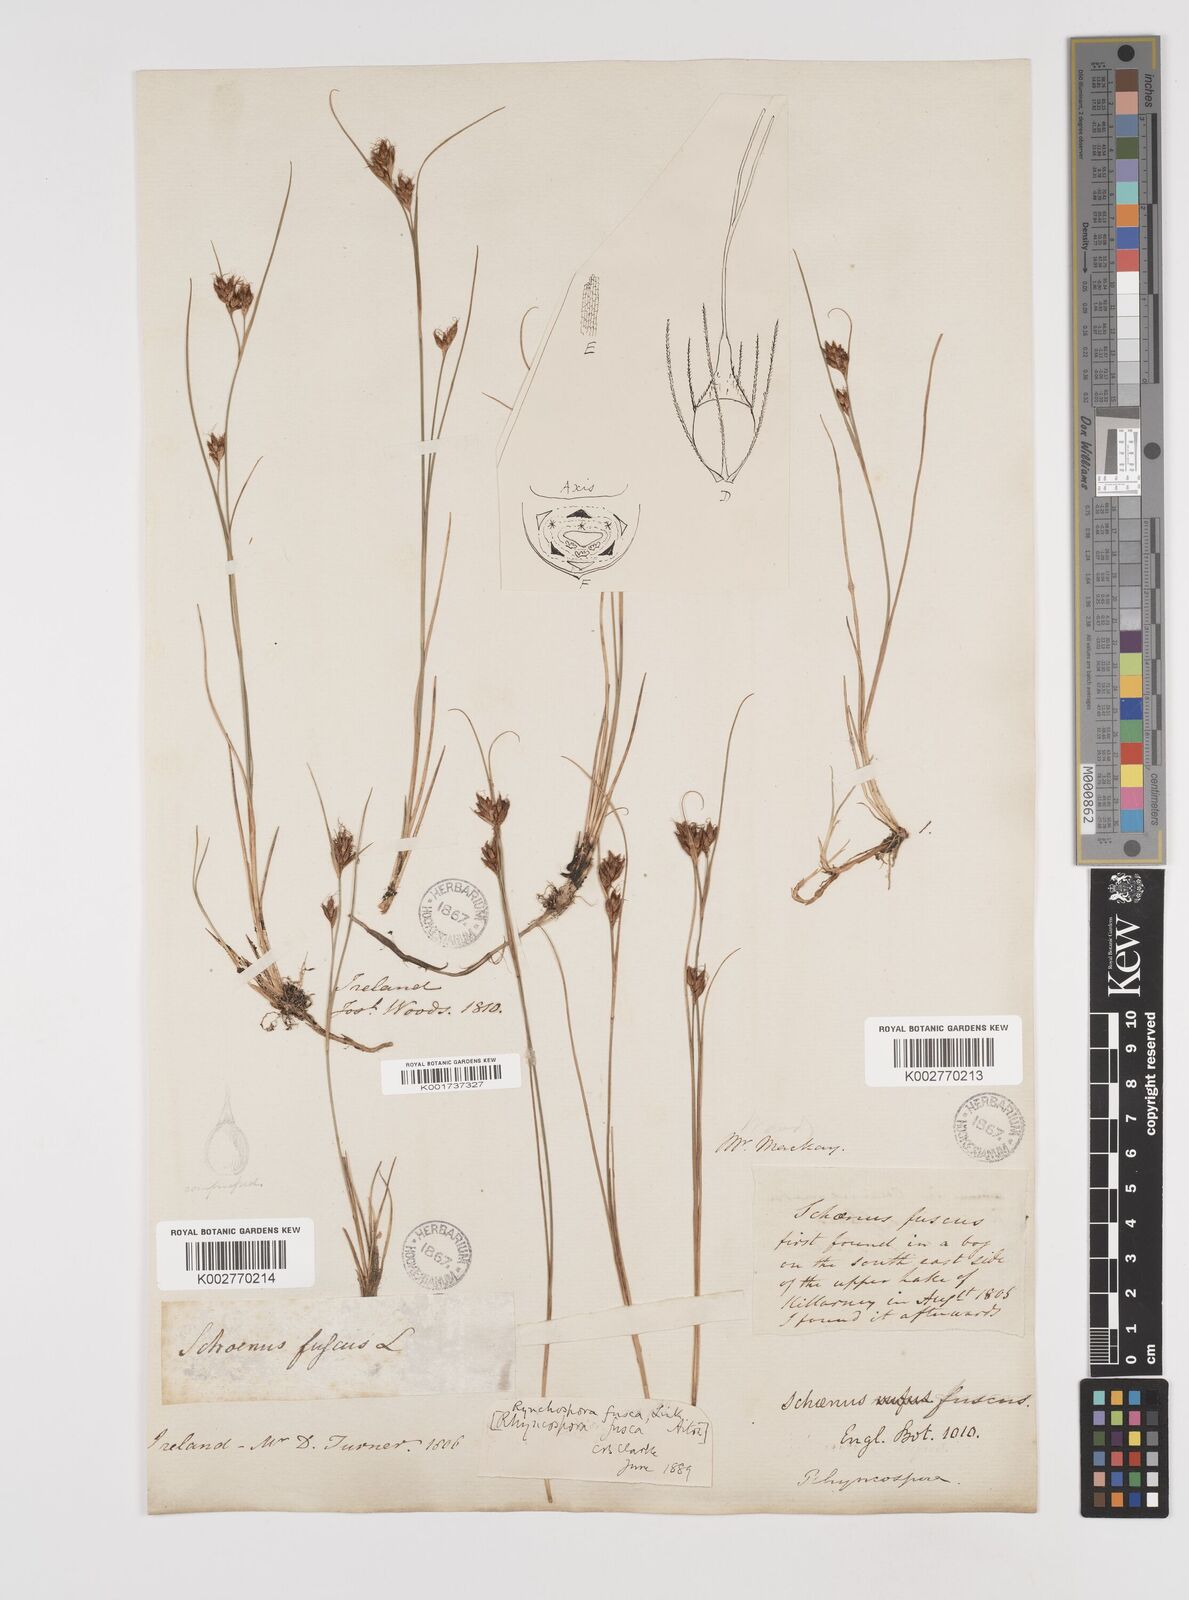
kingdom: Plantae
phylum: Tracheophyta
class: Liliopsida
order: Poales
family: Cyperaceae
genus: Rhynchospora
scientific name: Rhynchospora fusca
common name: Brown beak-sedge
